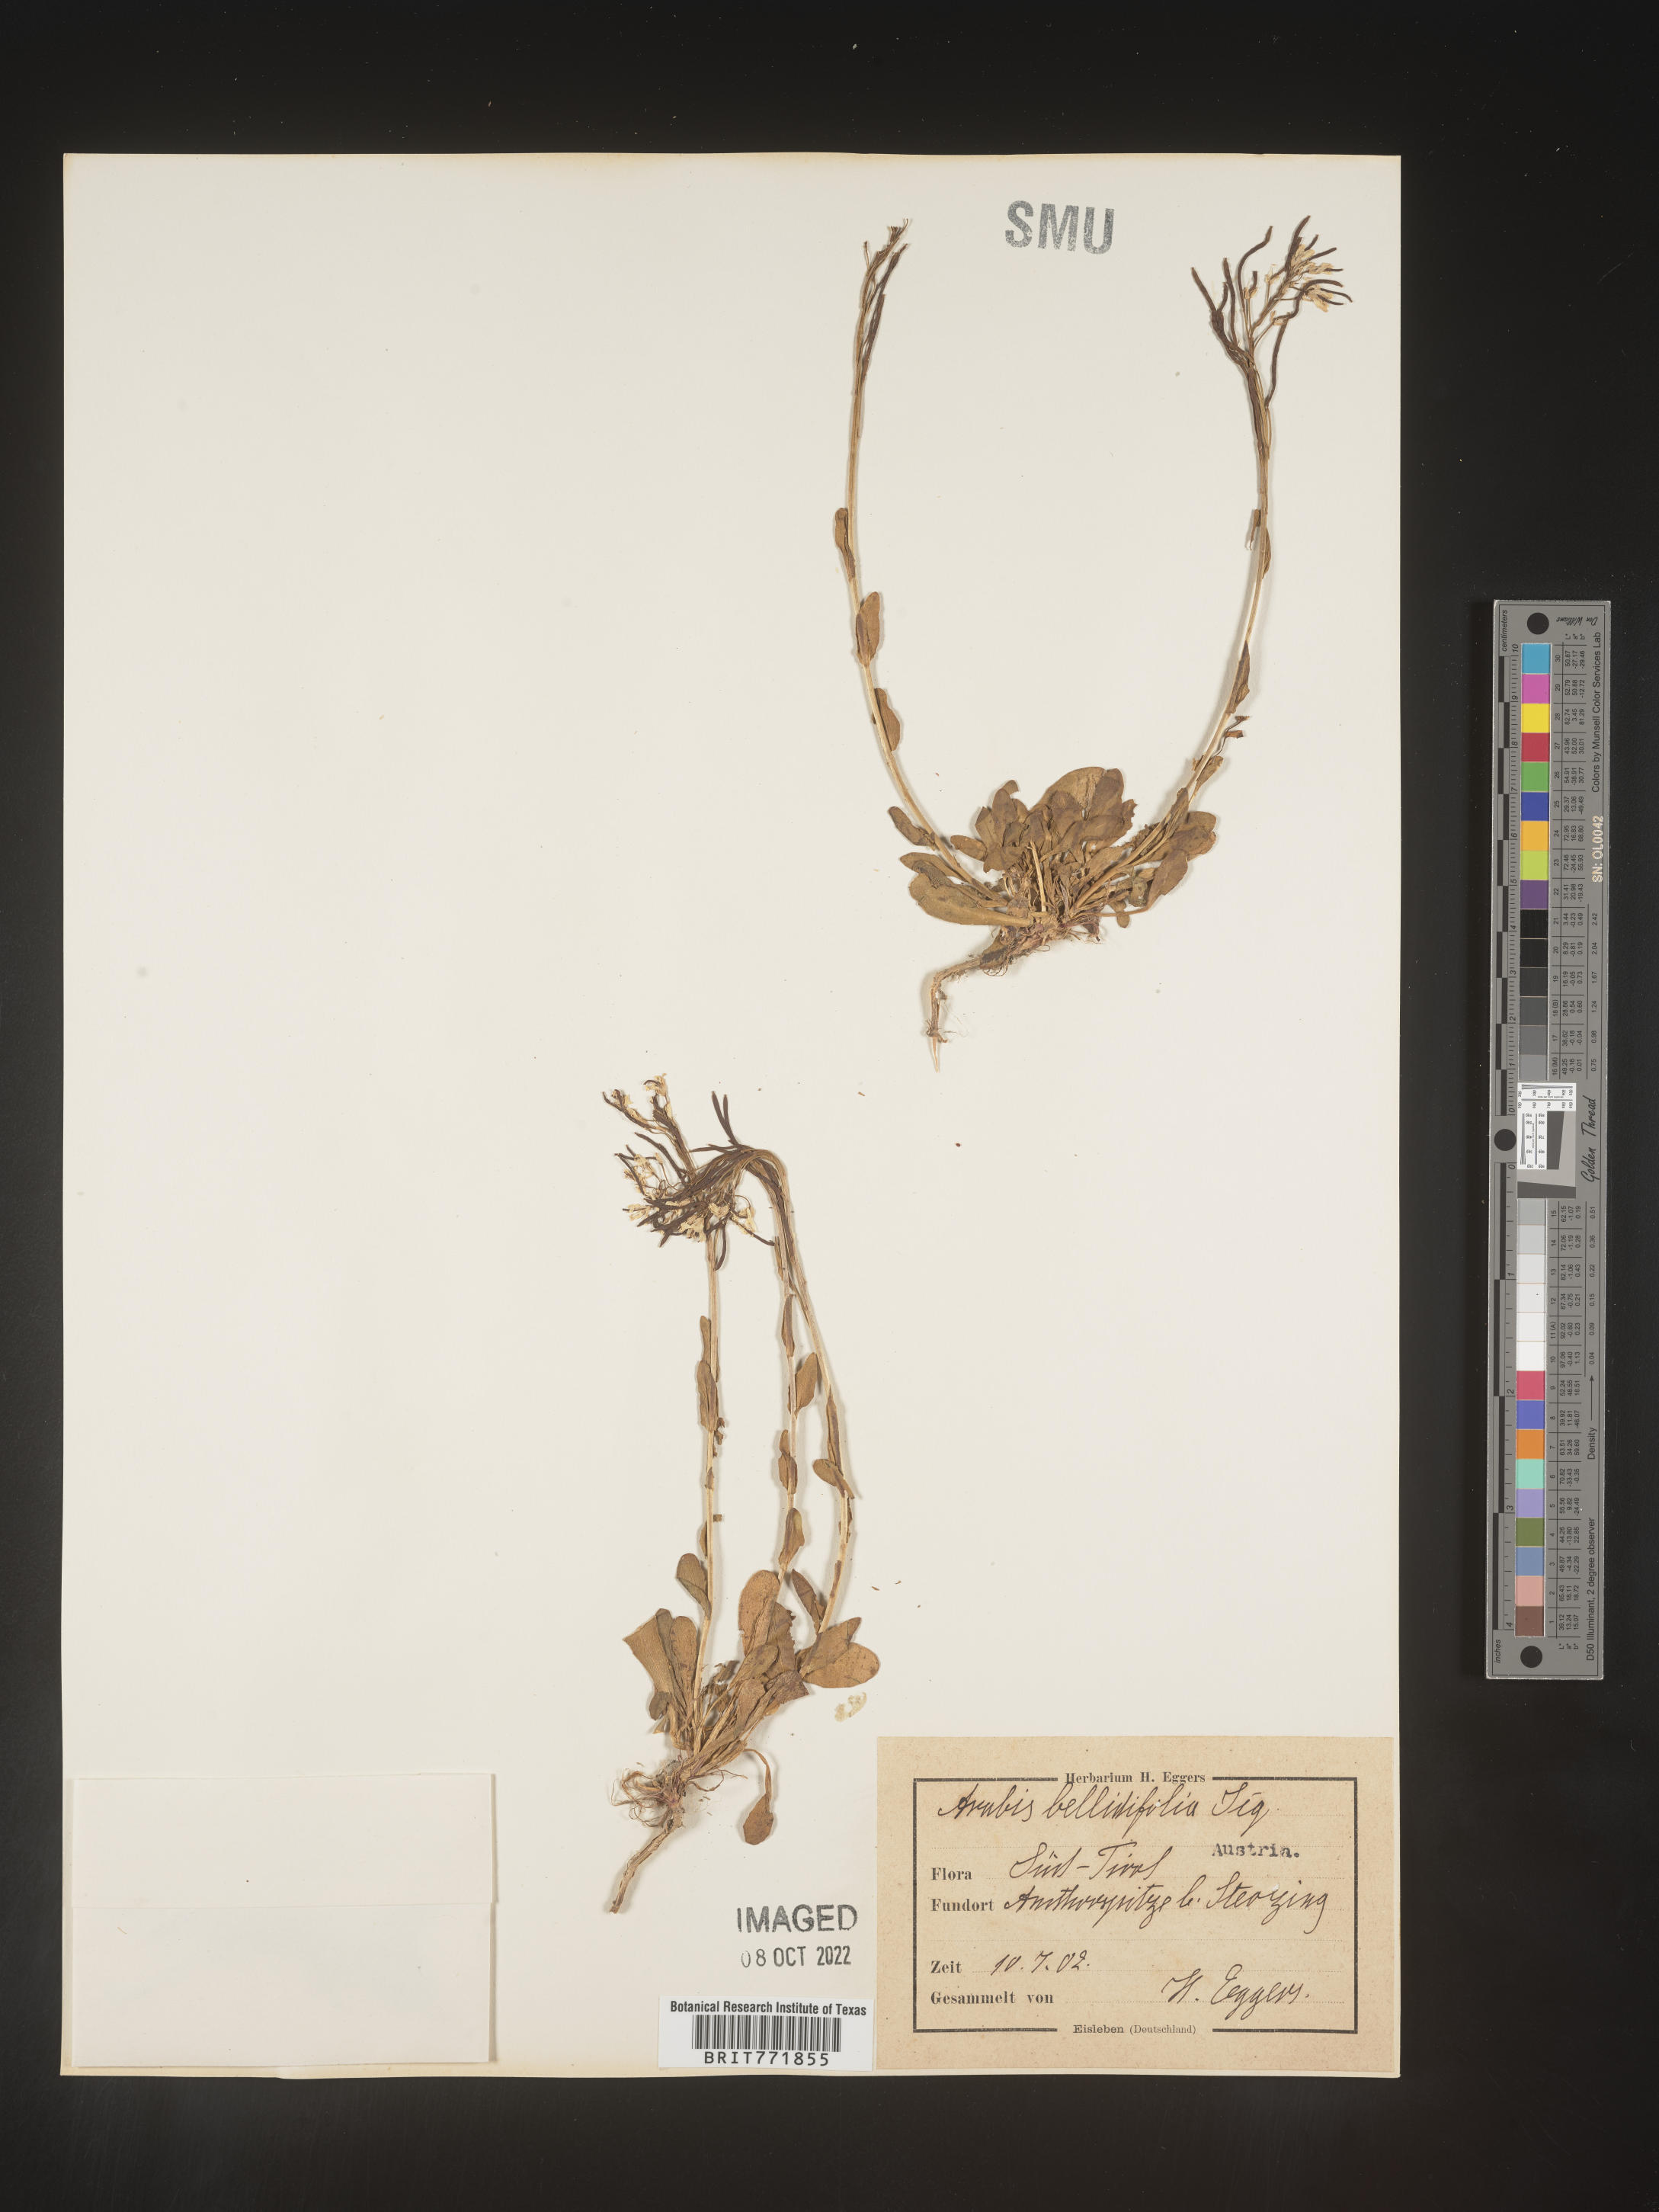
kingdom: Plantae
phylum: Tracheophyta
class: Magnoliopsida
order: Brassicales
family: Brassicaceae
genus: Arabis
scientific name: Arabis
